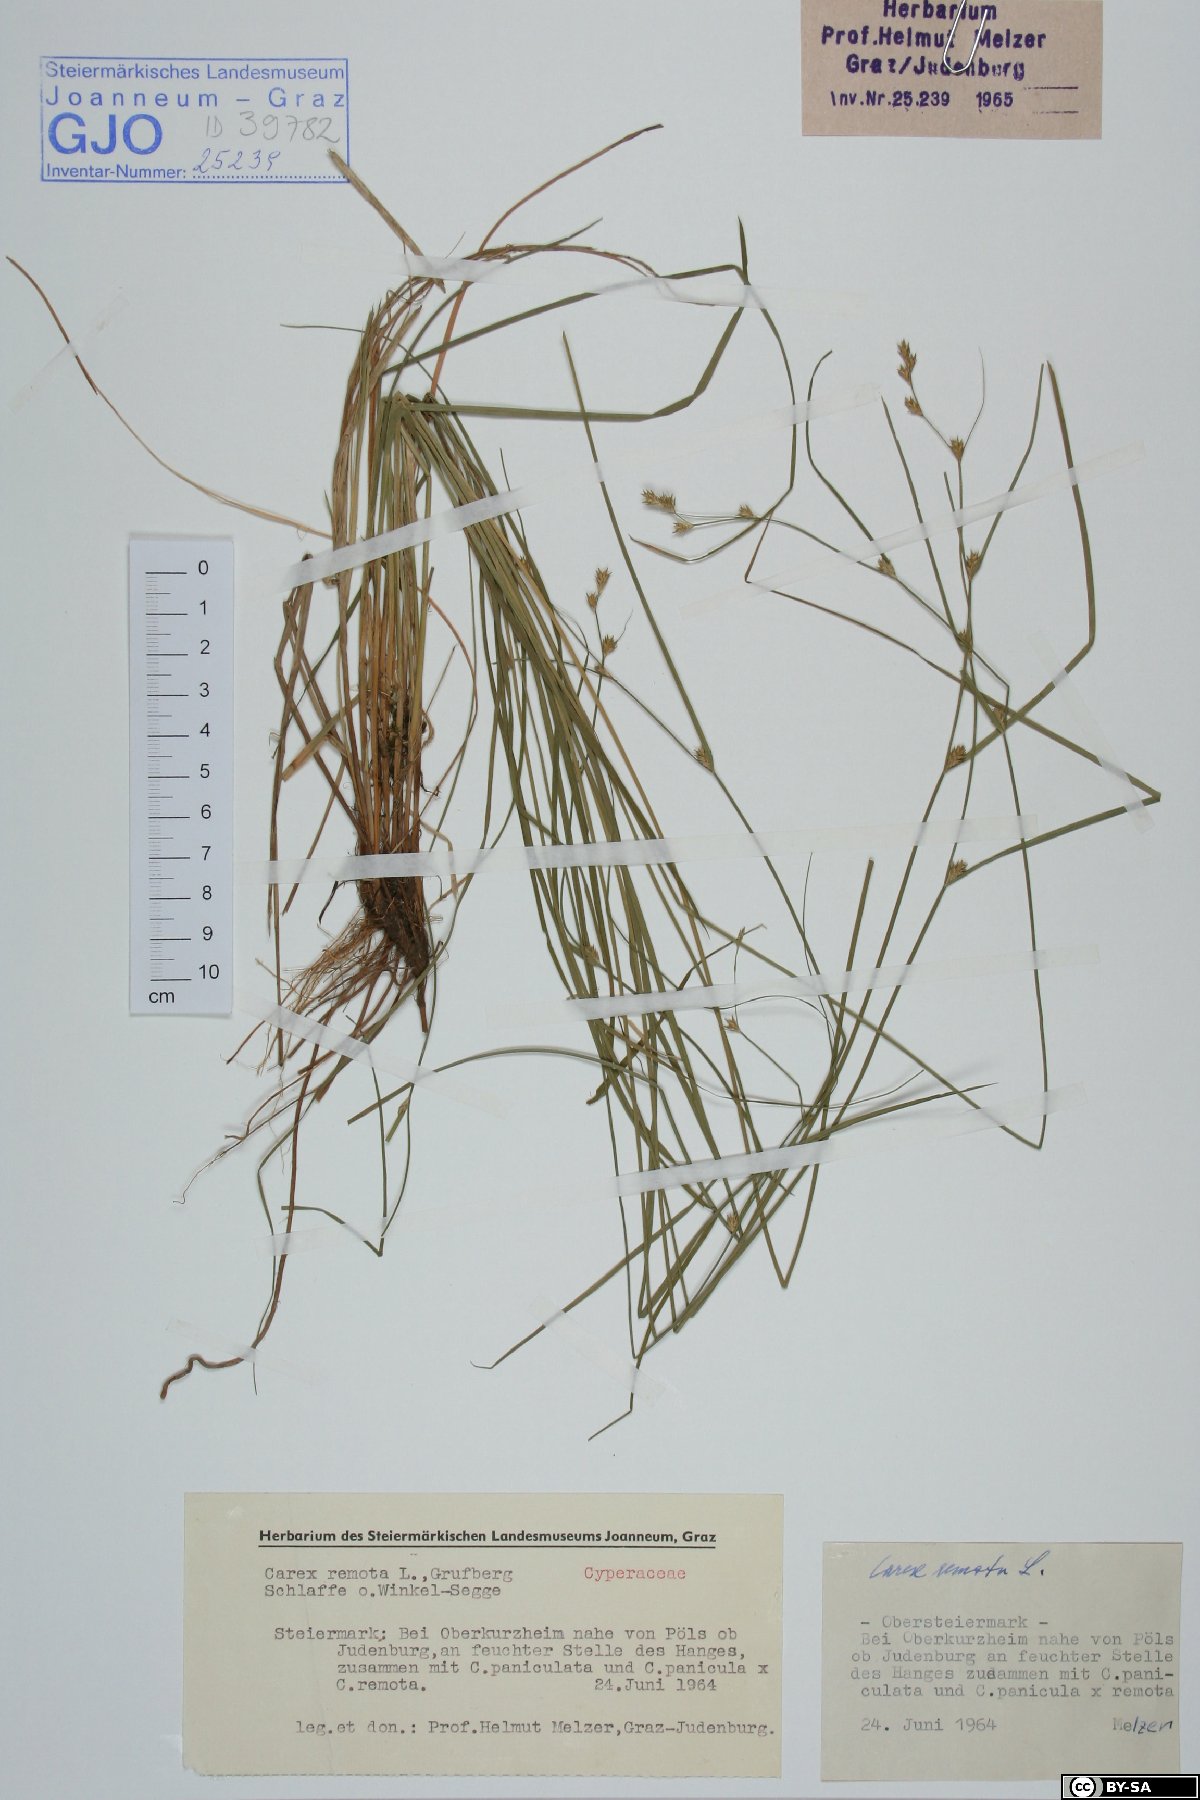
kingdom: Plantae
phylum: Tracheophyta
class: Liliopsida
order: Poales
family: Cyperaceae
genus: Carex
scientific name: Carex remota
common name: Remote sedge
